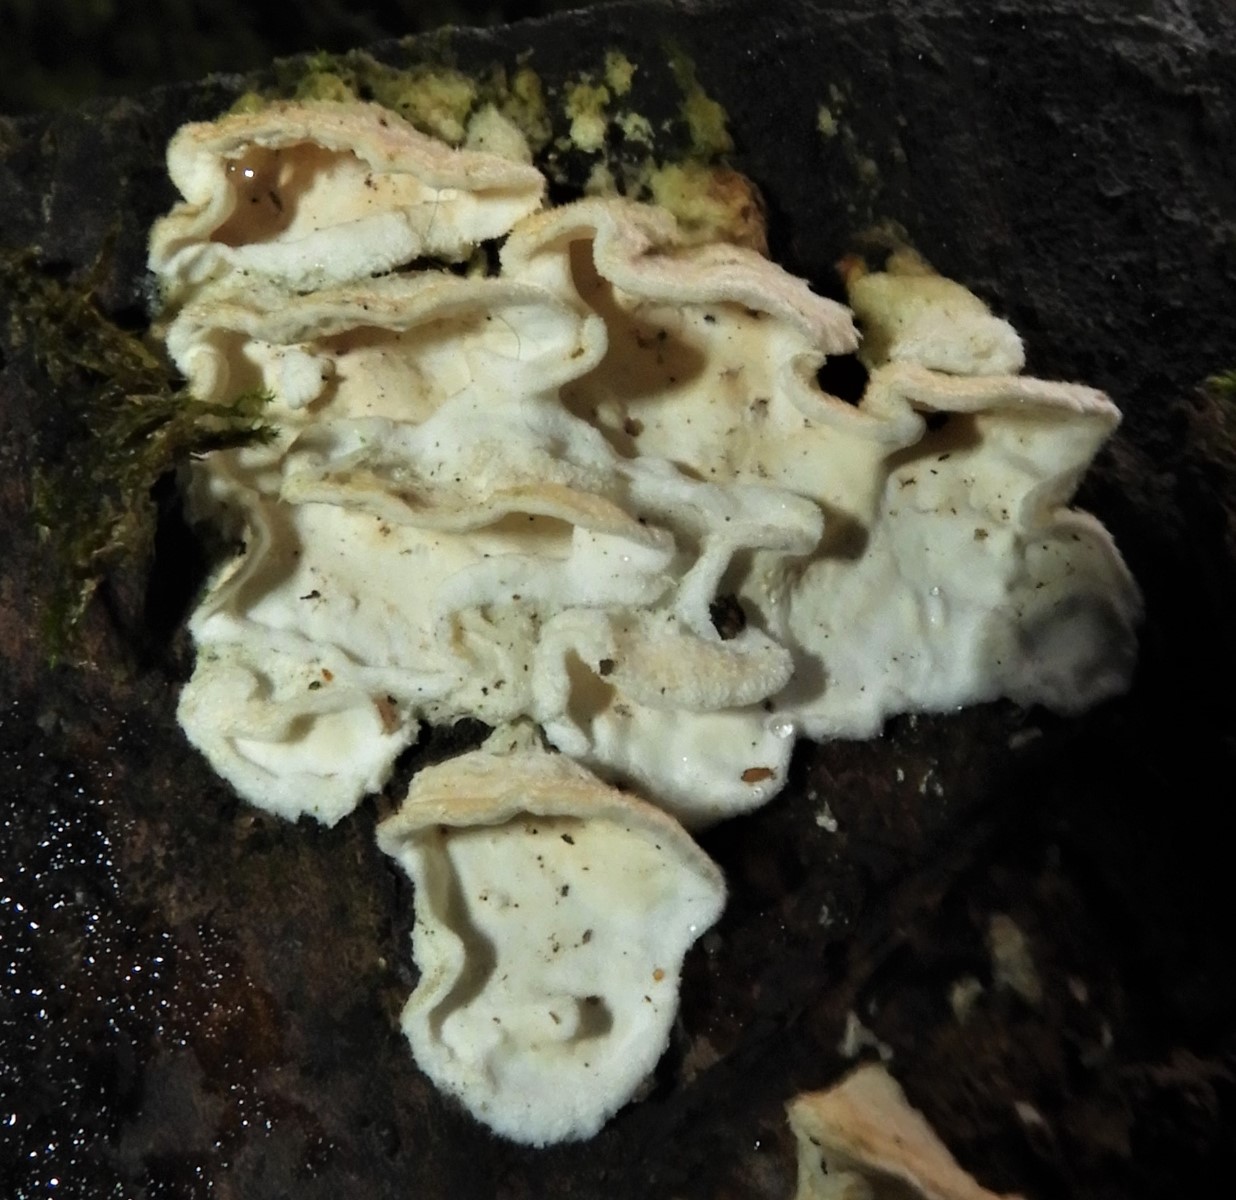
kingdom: Fungi
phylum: Basidiomycota
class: Agaricomycetes
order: Polyporales
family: Irpicaceae
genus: Byssomerulius
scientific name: Byssomerulius corium
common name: læder-åresvamp
